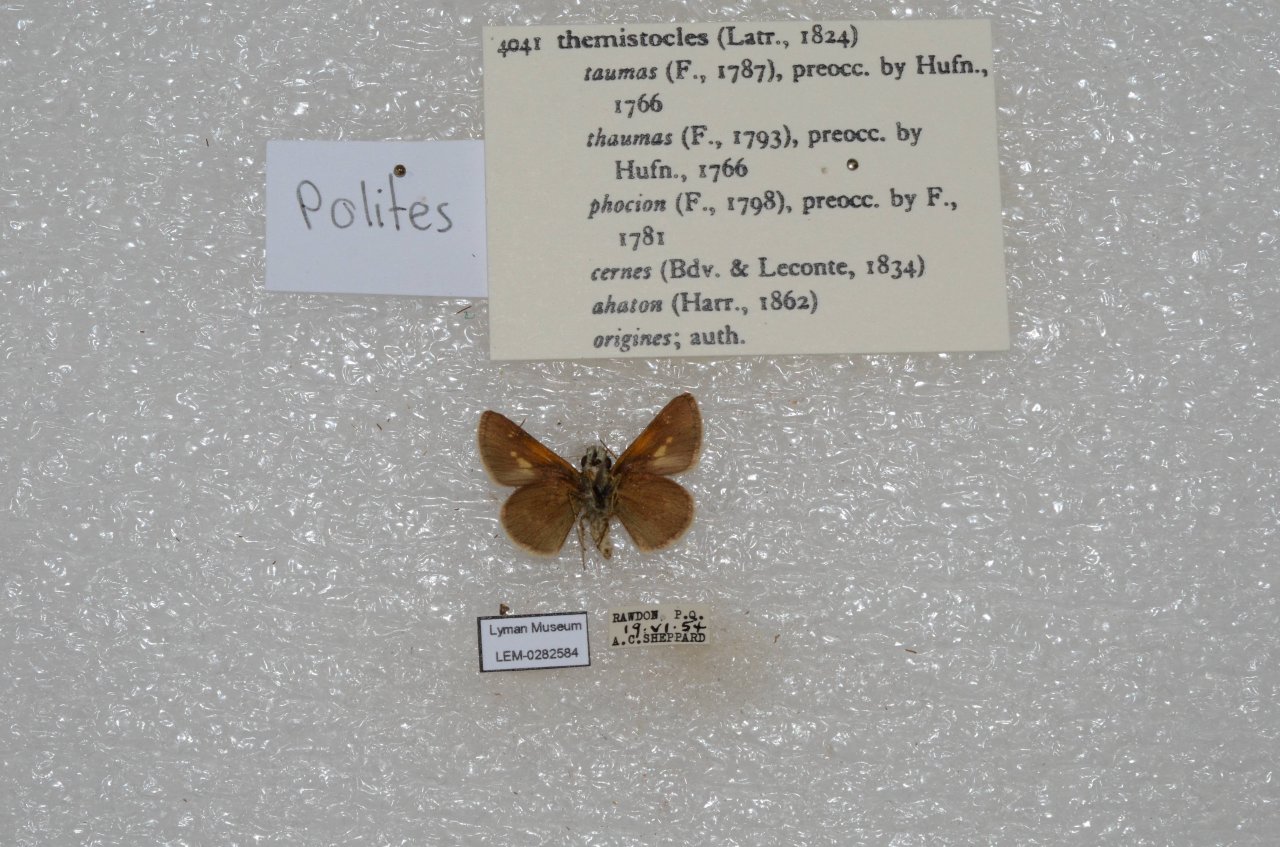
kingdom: Animalia
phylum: Arthropoda
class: Insecta
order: Lepidoptera
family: Hesperiidae
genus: Polites
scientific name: Polites themistocles
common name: Tawny-edged Skipper
